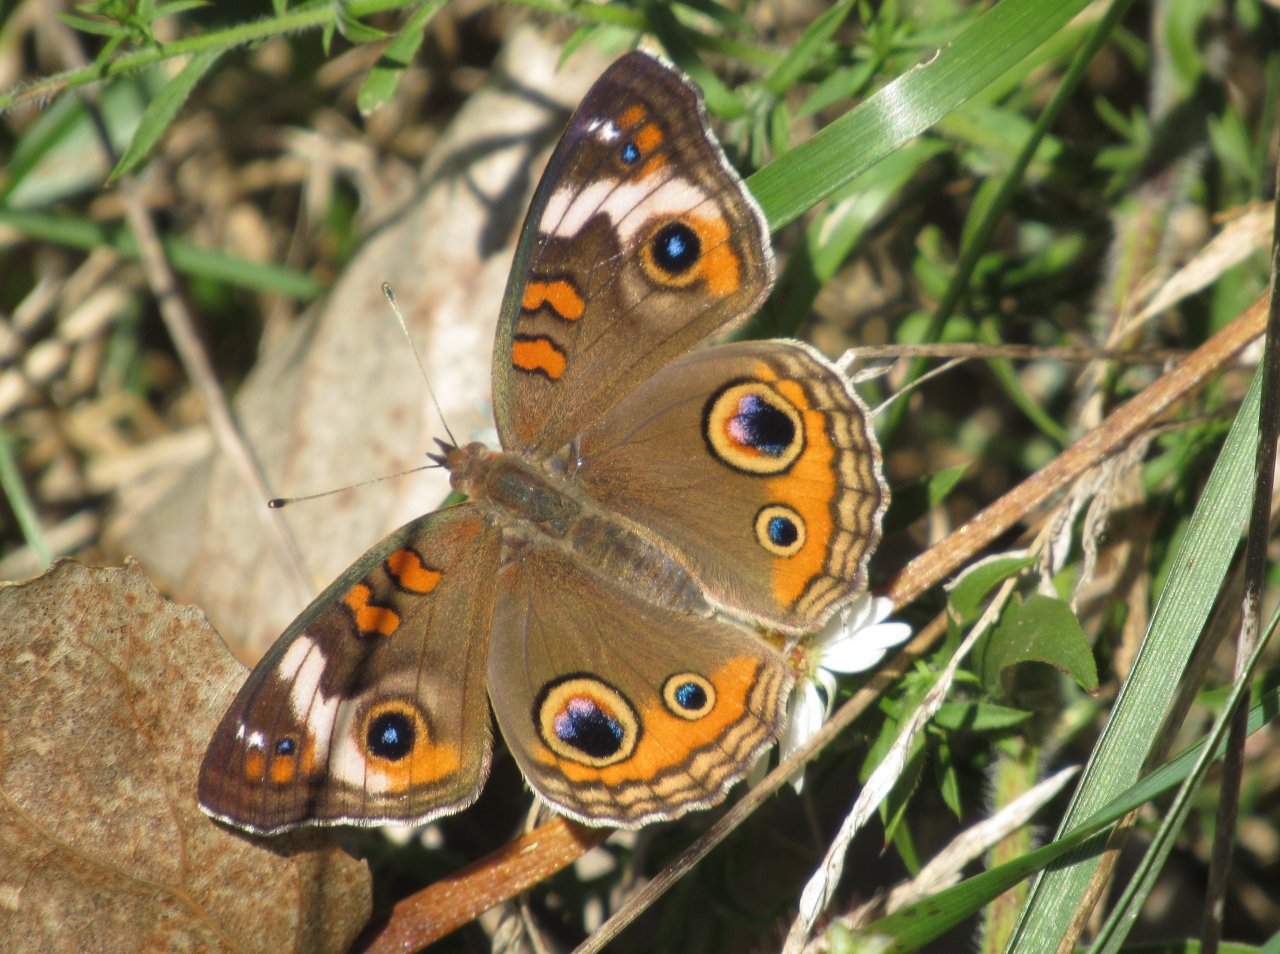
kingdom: Animalia
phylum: Arthropoda
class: Insecta
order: Lepidoptera
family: Nymphalidae
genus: Junonia
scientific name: Junonia coenia
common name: Common Buckeye
